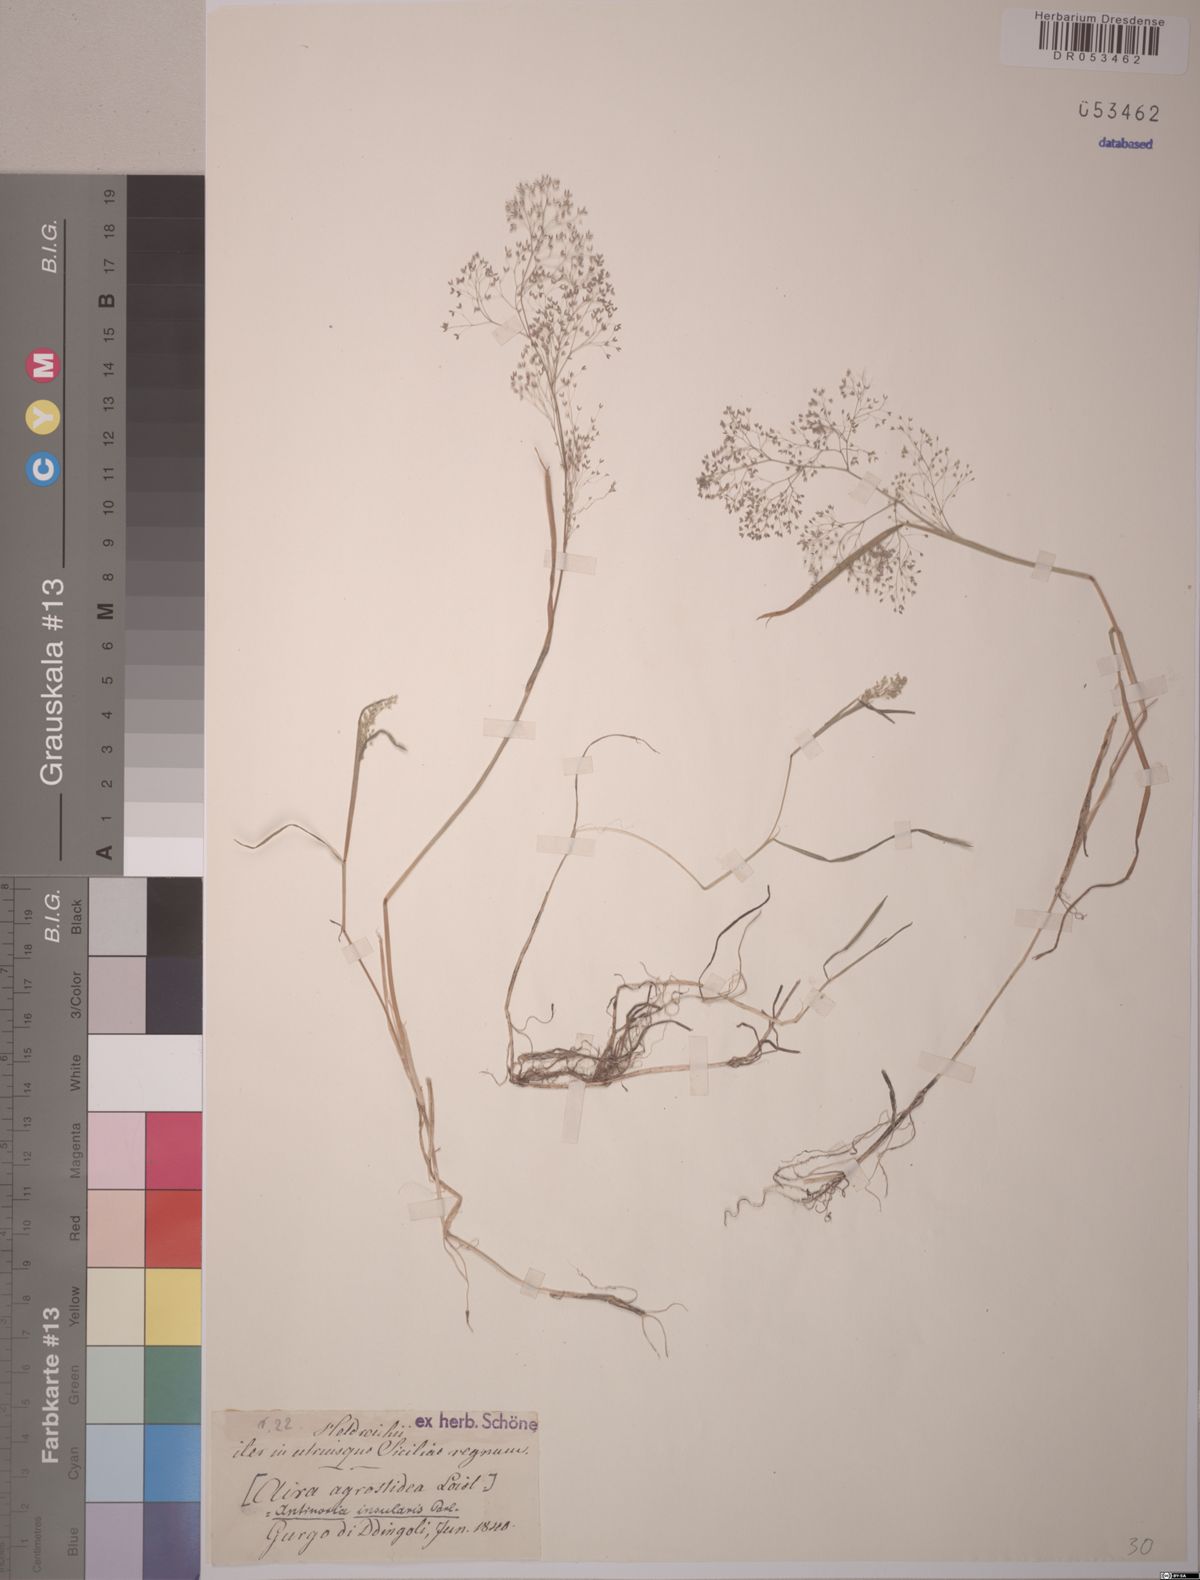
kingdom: Plantae
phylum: Tracheophyta
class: Liliopsida
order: Poales
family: Poaceae
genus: Antinoria
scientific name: Antinoria insularis
